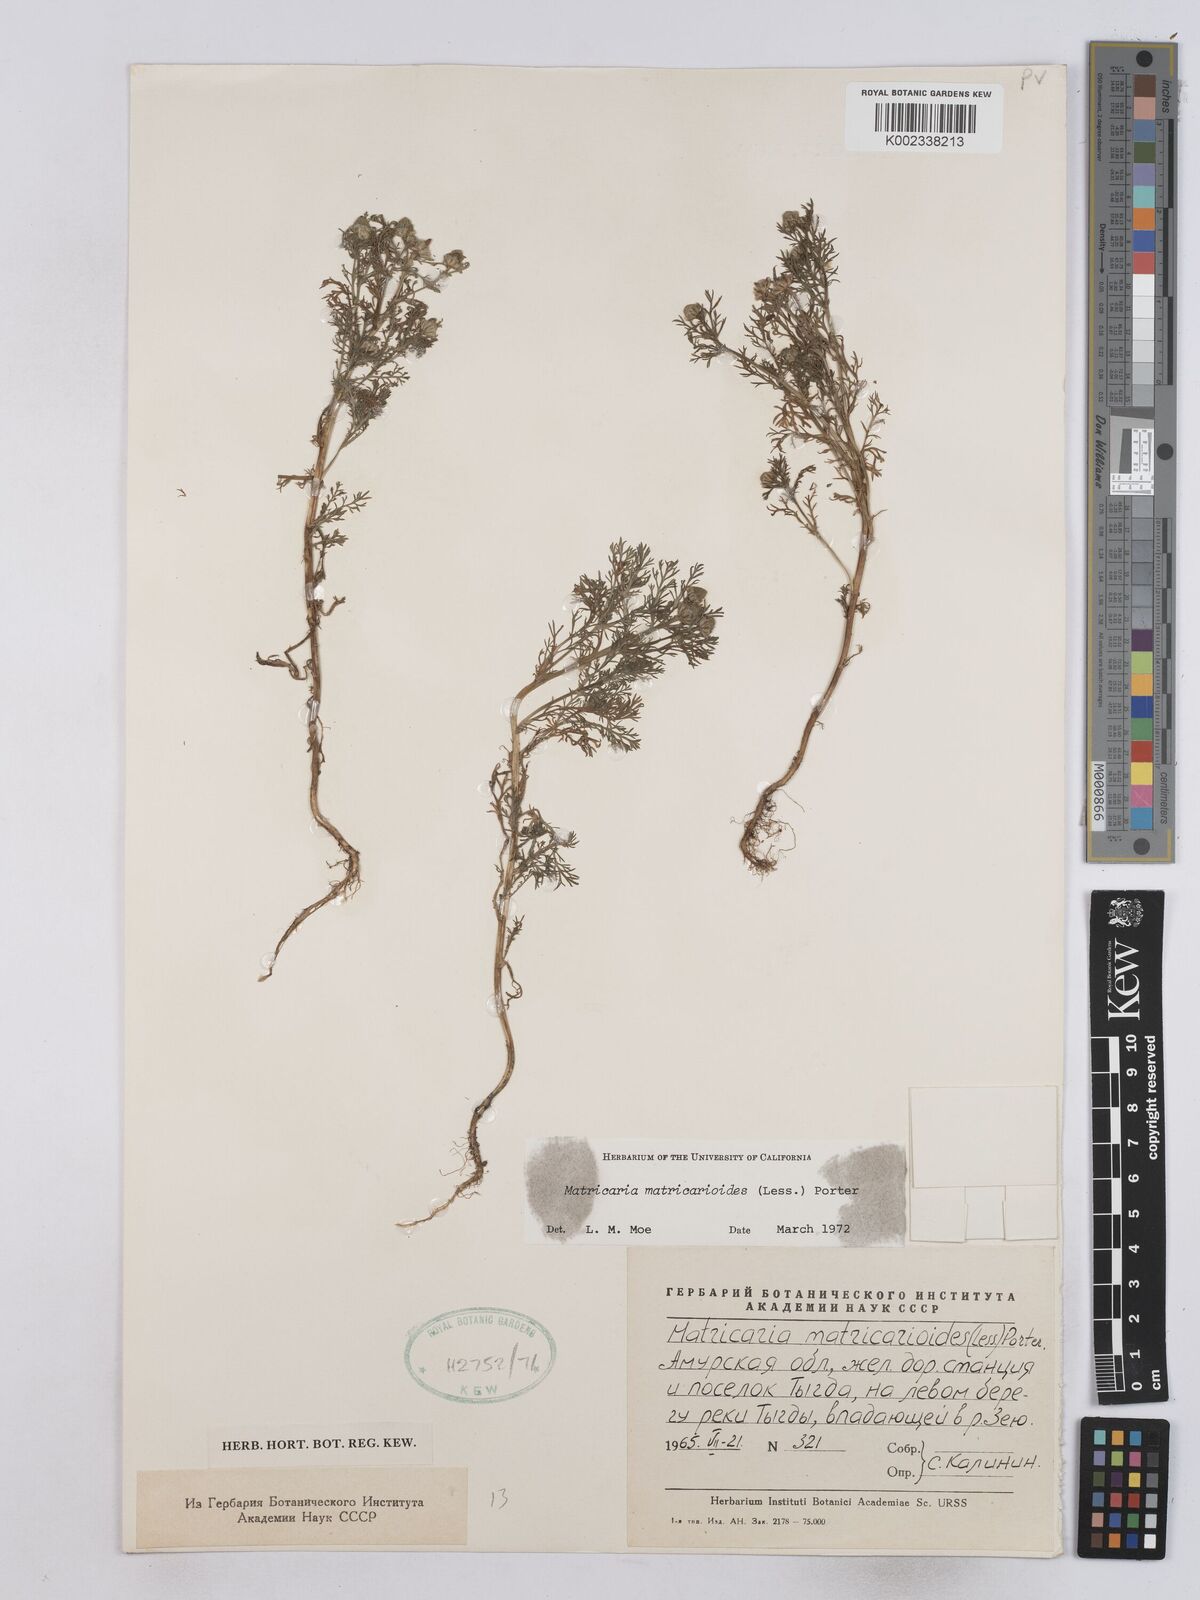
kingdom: Plantae
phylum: Tracheophyta
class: Magnoliopsida
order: Asterales
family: Asteraceae
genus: Matricaria
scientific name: Matricaria discoidea
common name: Disc mayweed
